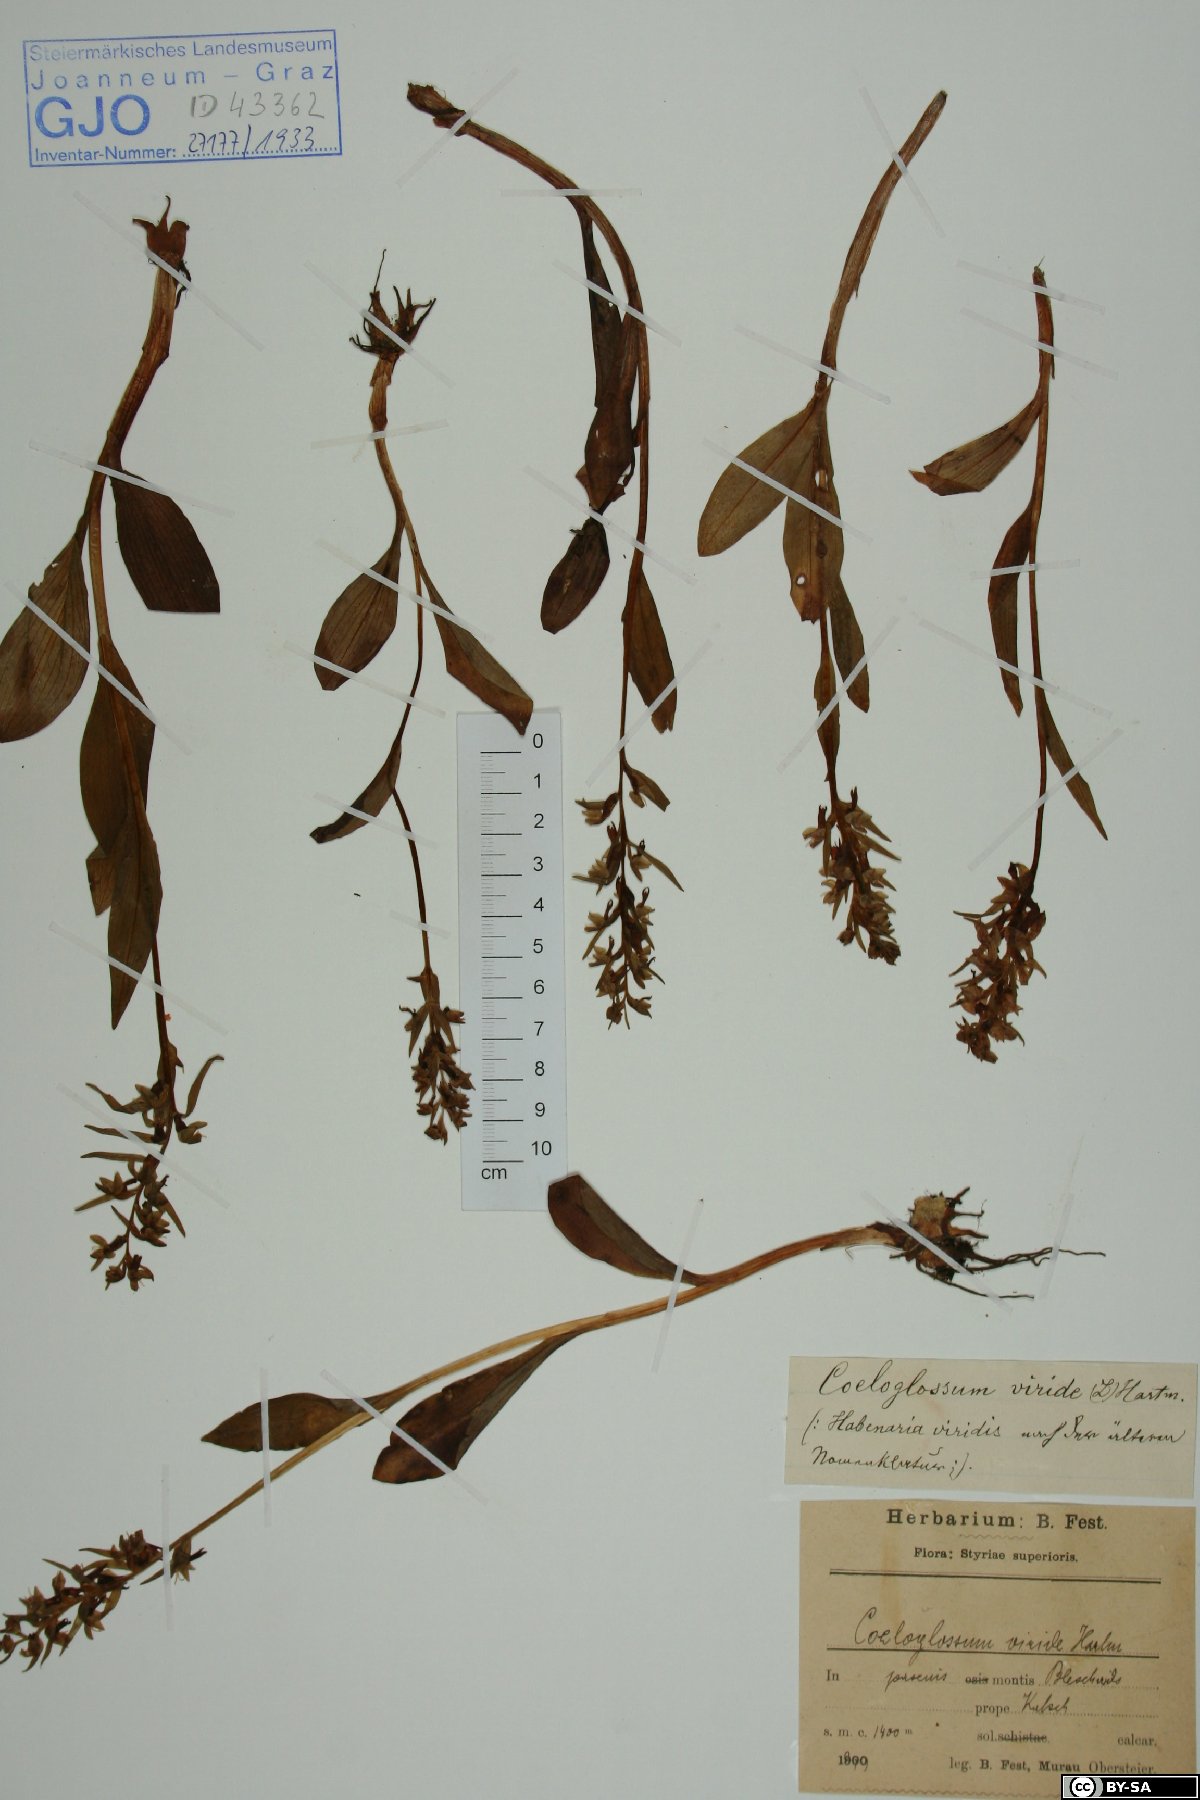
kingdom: Plantae
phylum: Tracheophyta
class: Liliopsida
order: Asparagales
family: Orchidaceae
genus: Dactylorhiza
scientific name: Dactylorhiza viridis
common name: Longbract frog orchid
